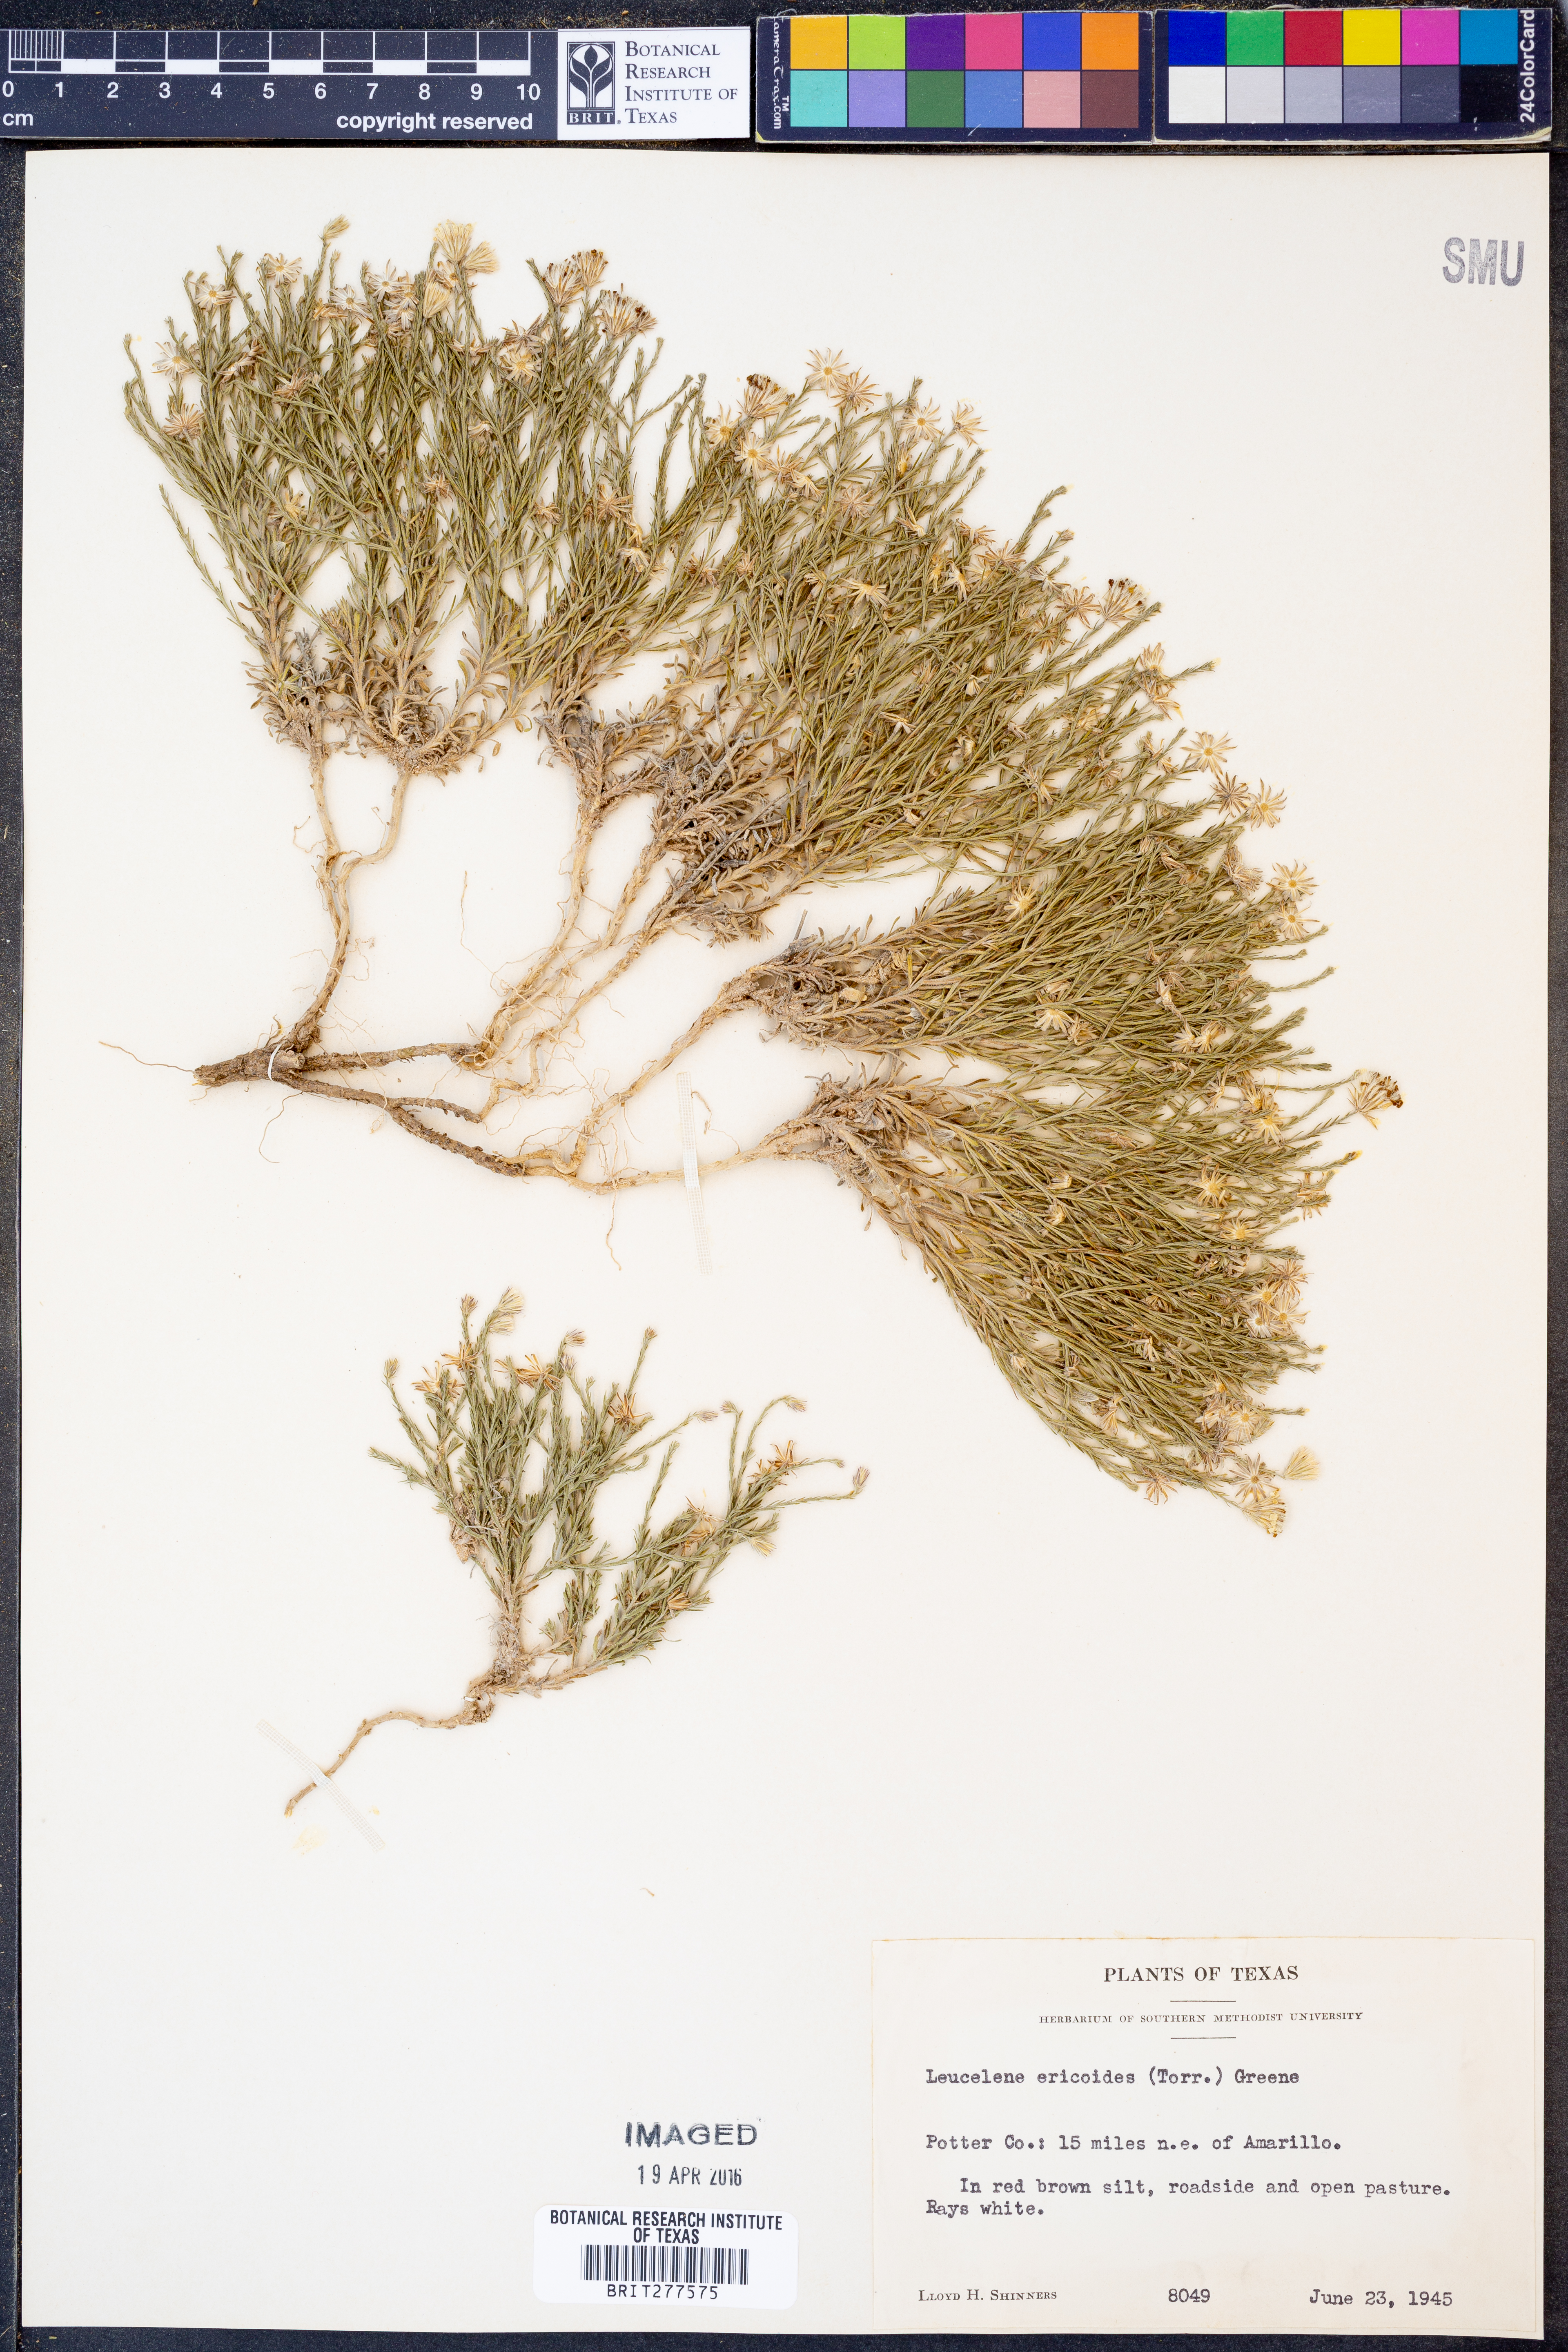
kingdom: Plantae
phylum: Tracheophyta
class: Magnoliopsida
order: Asterales
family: Asteraceae
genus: Chaetopappa
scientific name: Chaetopappa ericoides
